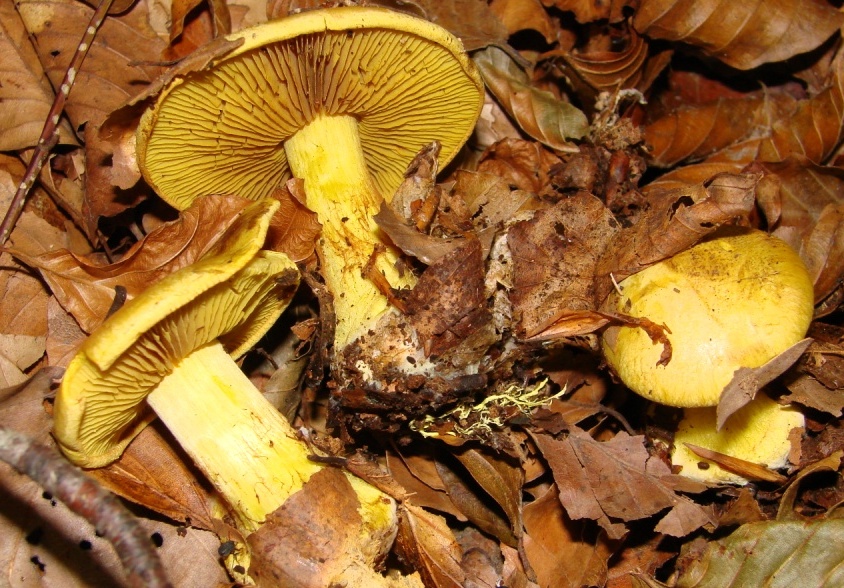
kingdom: Fungi
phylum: Basidiomycota
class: Agaricomycetes
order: Agaricales
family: Cortinariaceae
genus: Calonarius
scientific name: Calonarius splendens
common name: sirene-slørhat
